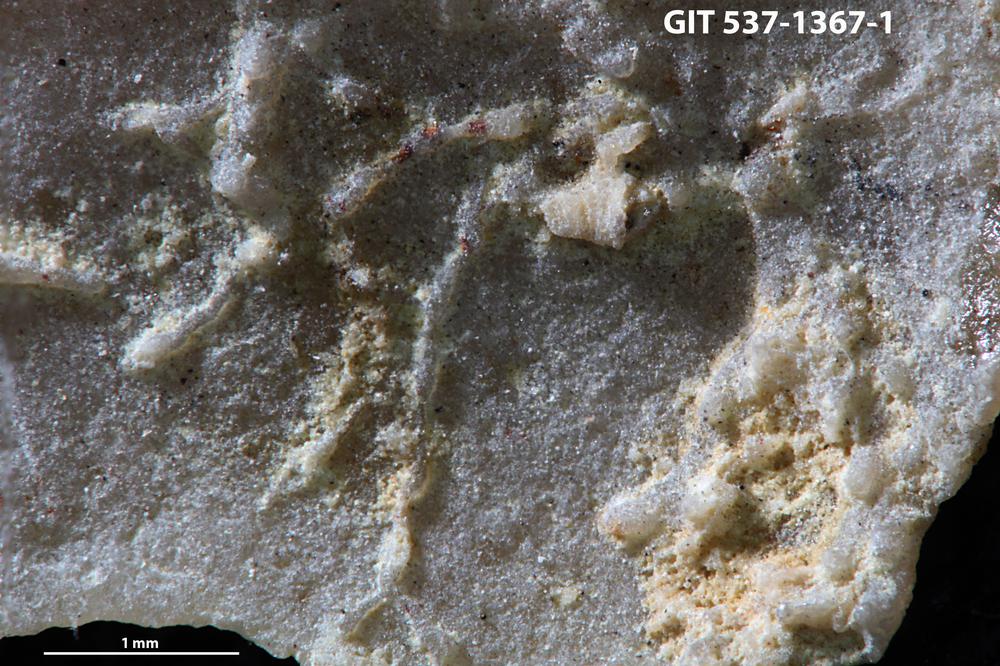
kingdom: Animalia
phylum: Bryozoa
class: Stenolaemata
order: Cyclostomatida
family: Corynotrypidae
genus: Corynotrypa
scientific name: Corynotrypa delicatula
